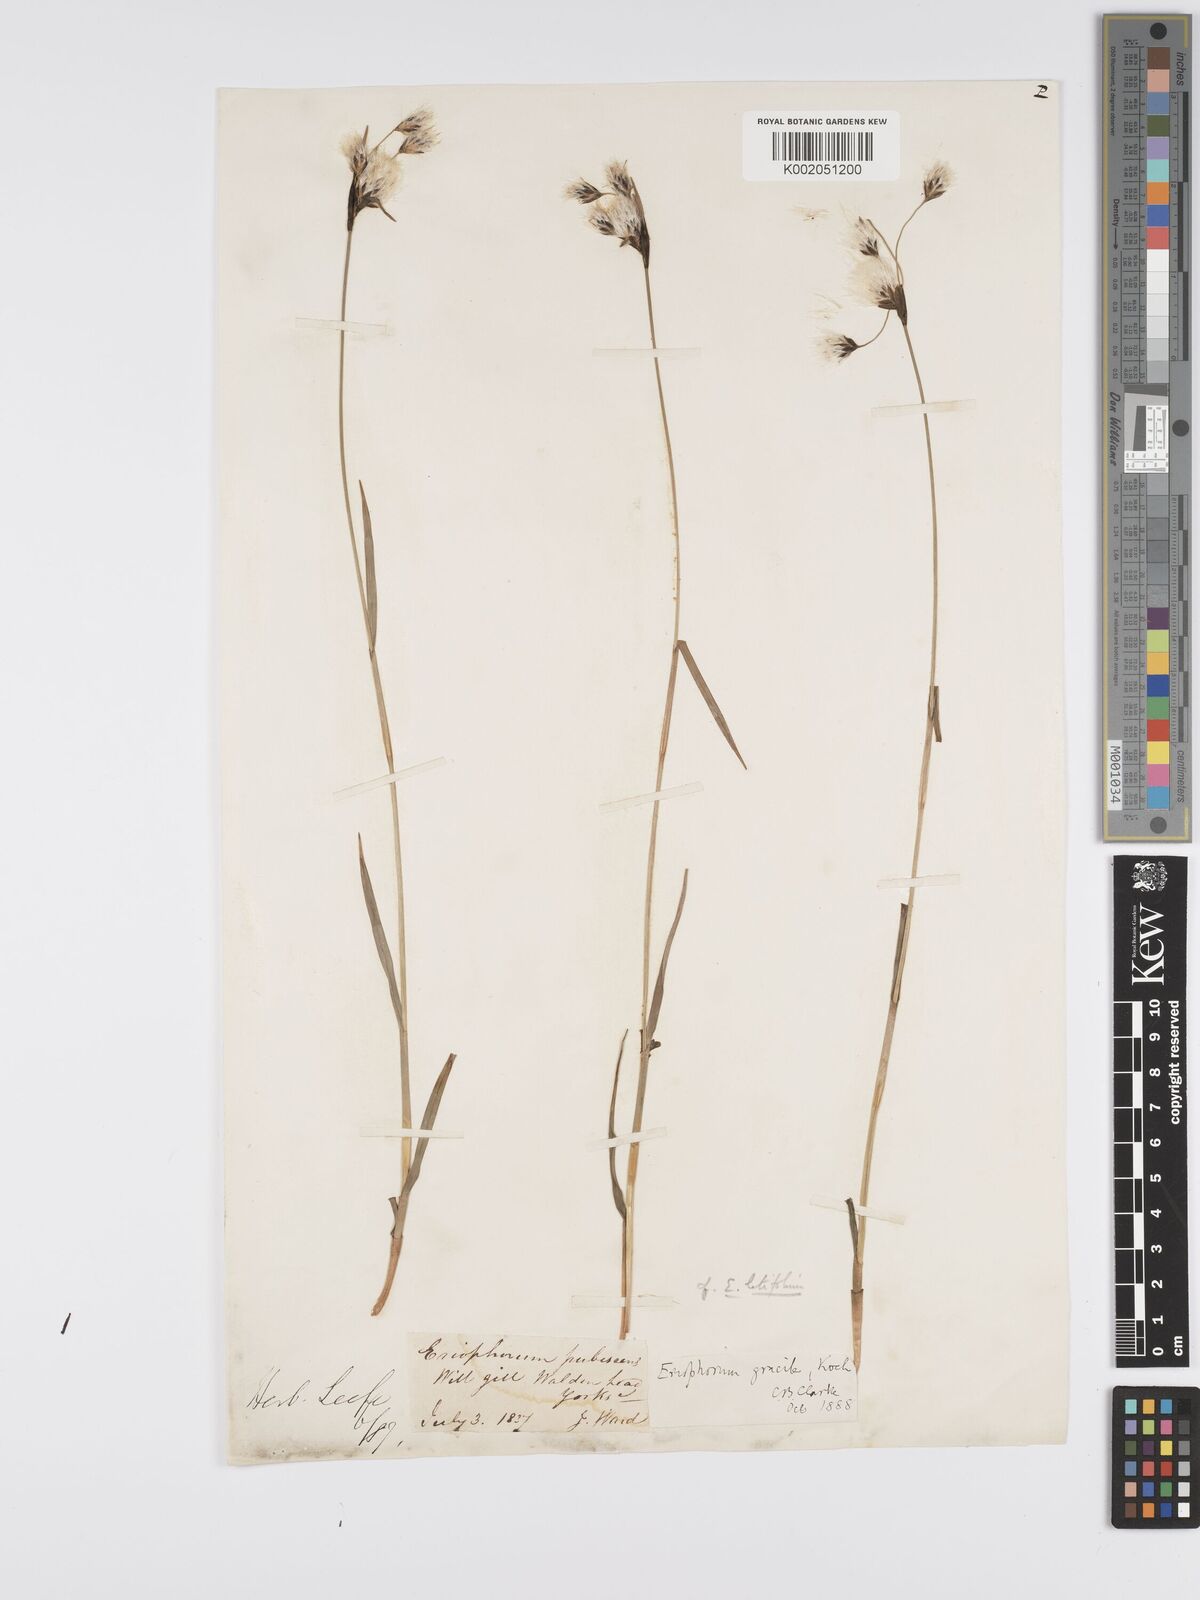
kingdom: Plantae
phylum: Tracheophyta
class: Liliopsida
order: Poales
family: Cyperaceae
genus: Eriophorum
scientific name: Eriophorum latifolium
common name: Broad-leaved cottongrass
